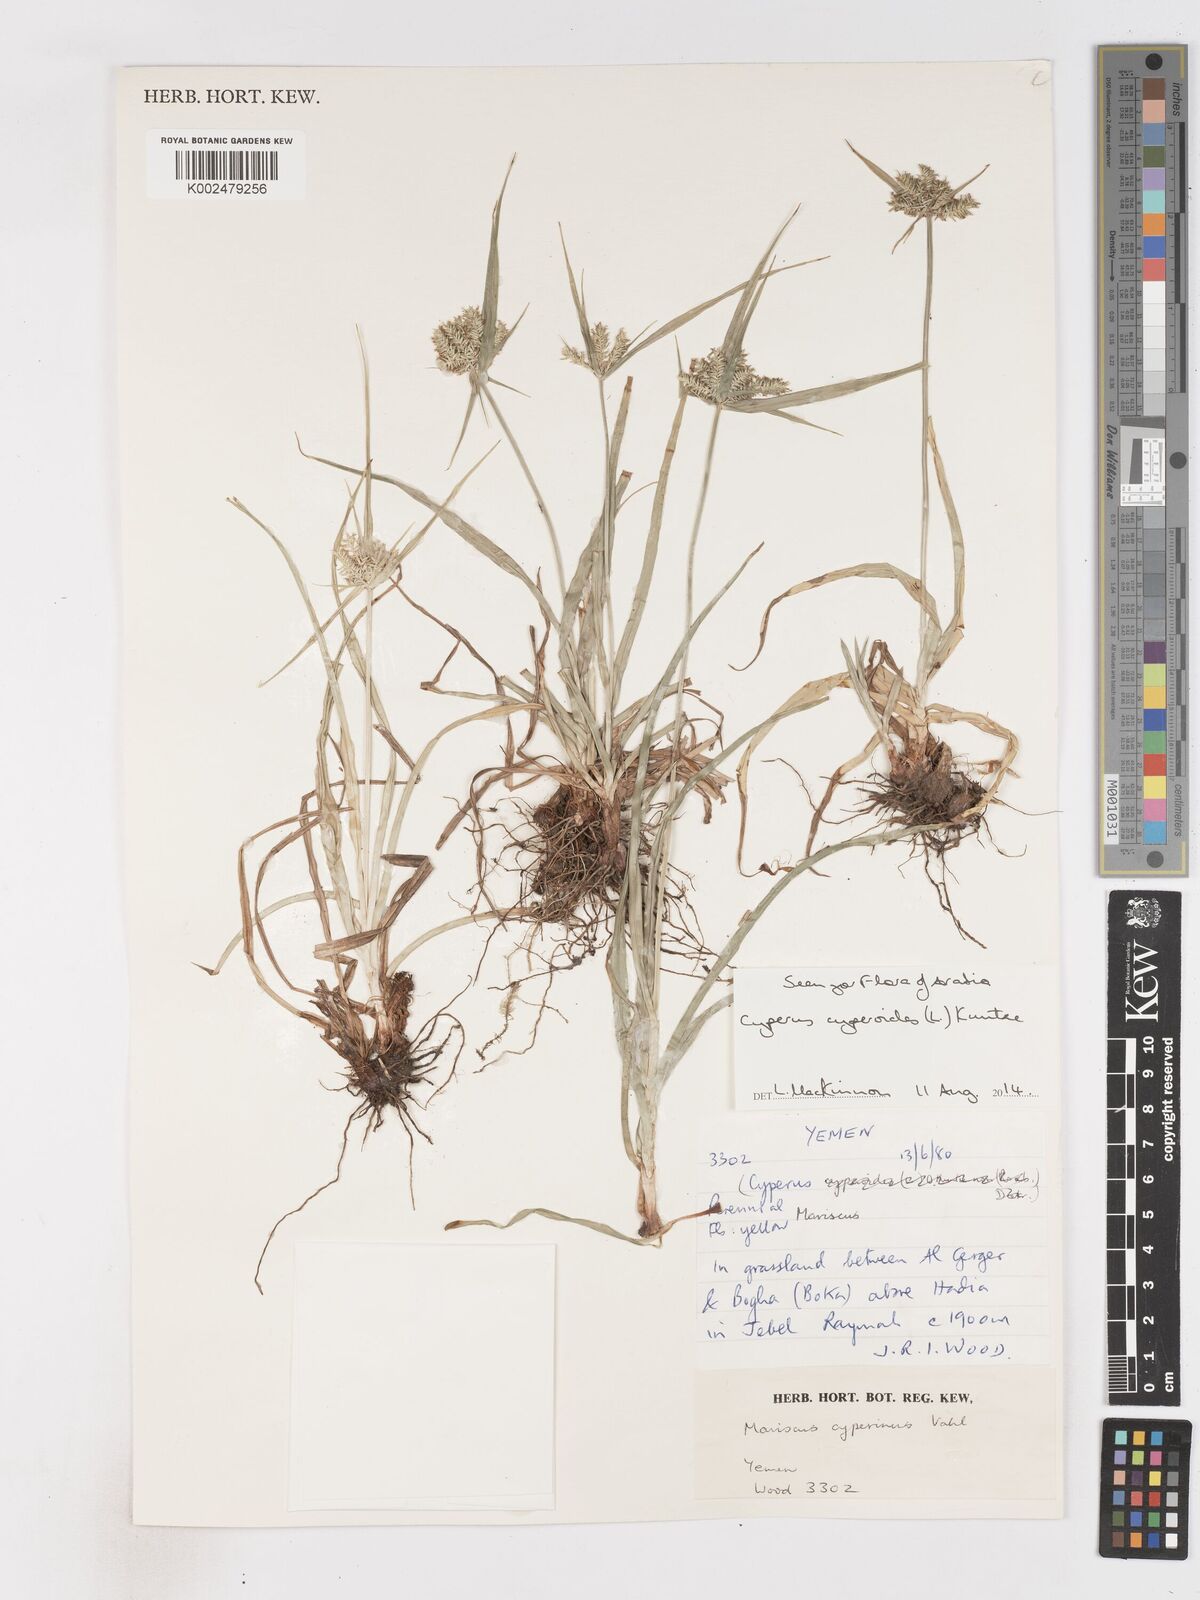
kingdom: Plantae
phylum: Tracheophyta
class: Liliopsida
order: Poales
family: Cyperaceae
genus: Cyperus
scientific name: Cyperus cyperoides
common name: Pacific island flat sedge
